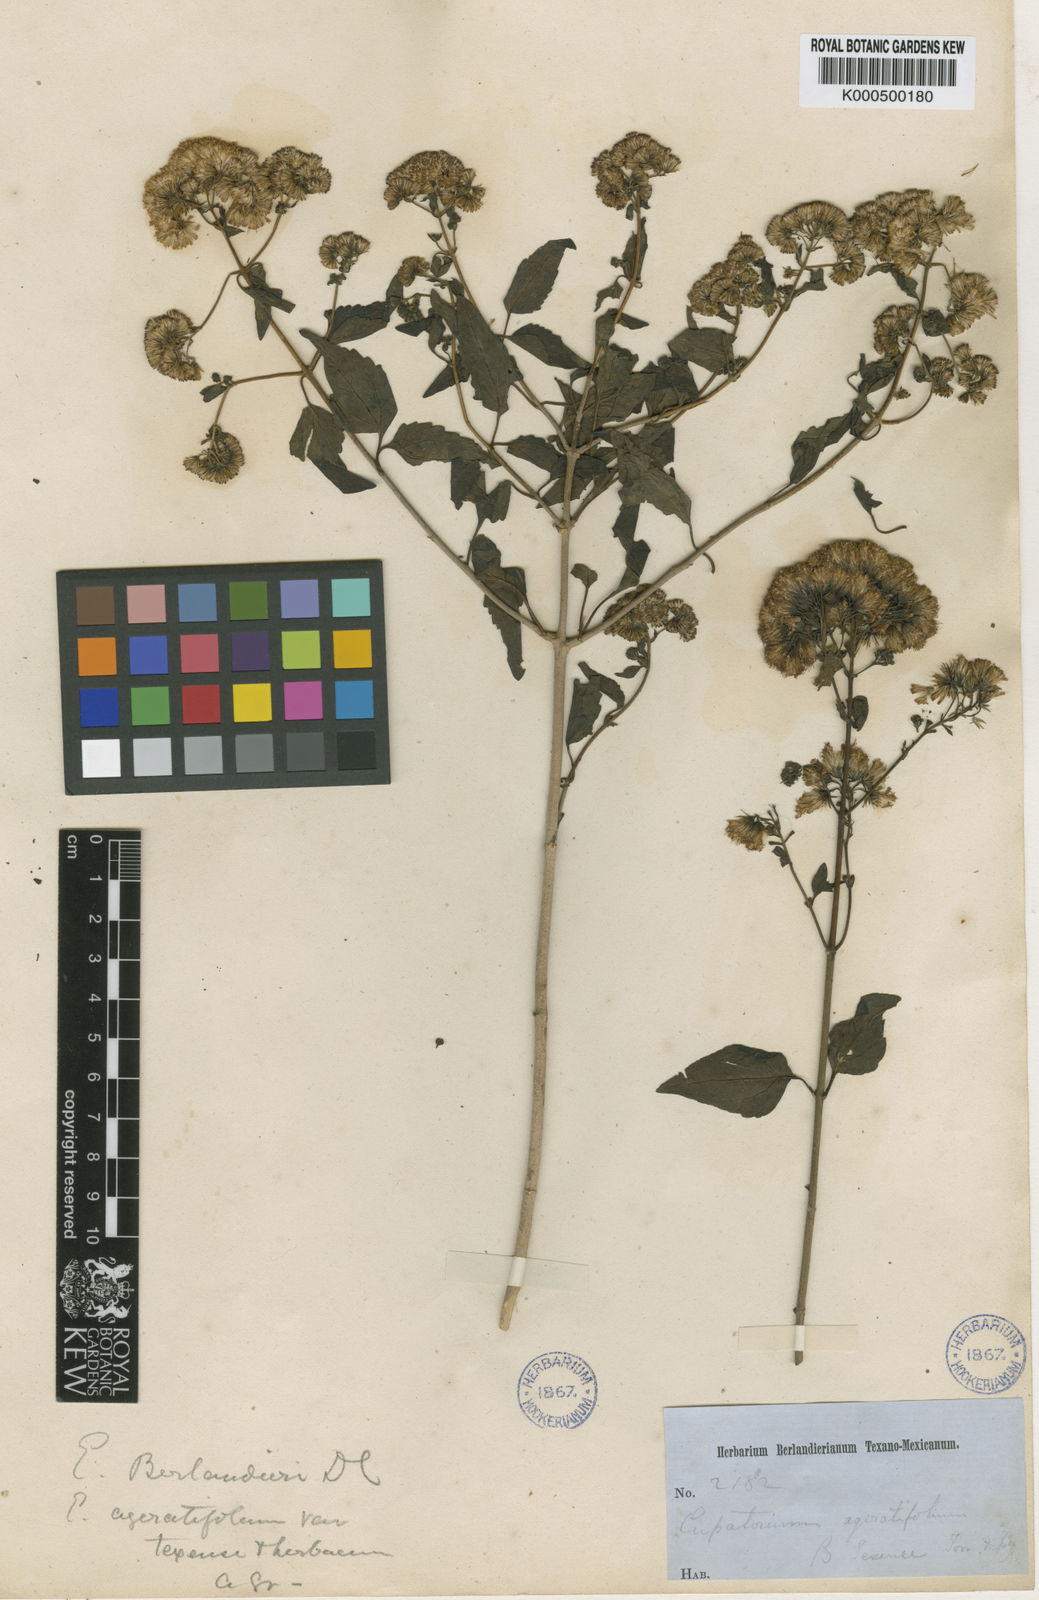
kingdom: Plantae
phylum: Tracheophyta
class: Magnoliopsida
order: Asterales
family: Asteraceae
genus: Ageratina
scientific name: Ageratina herbacea
